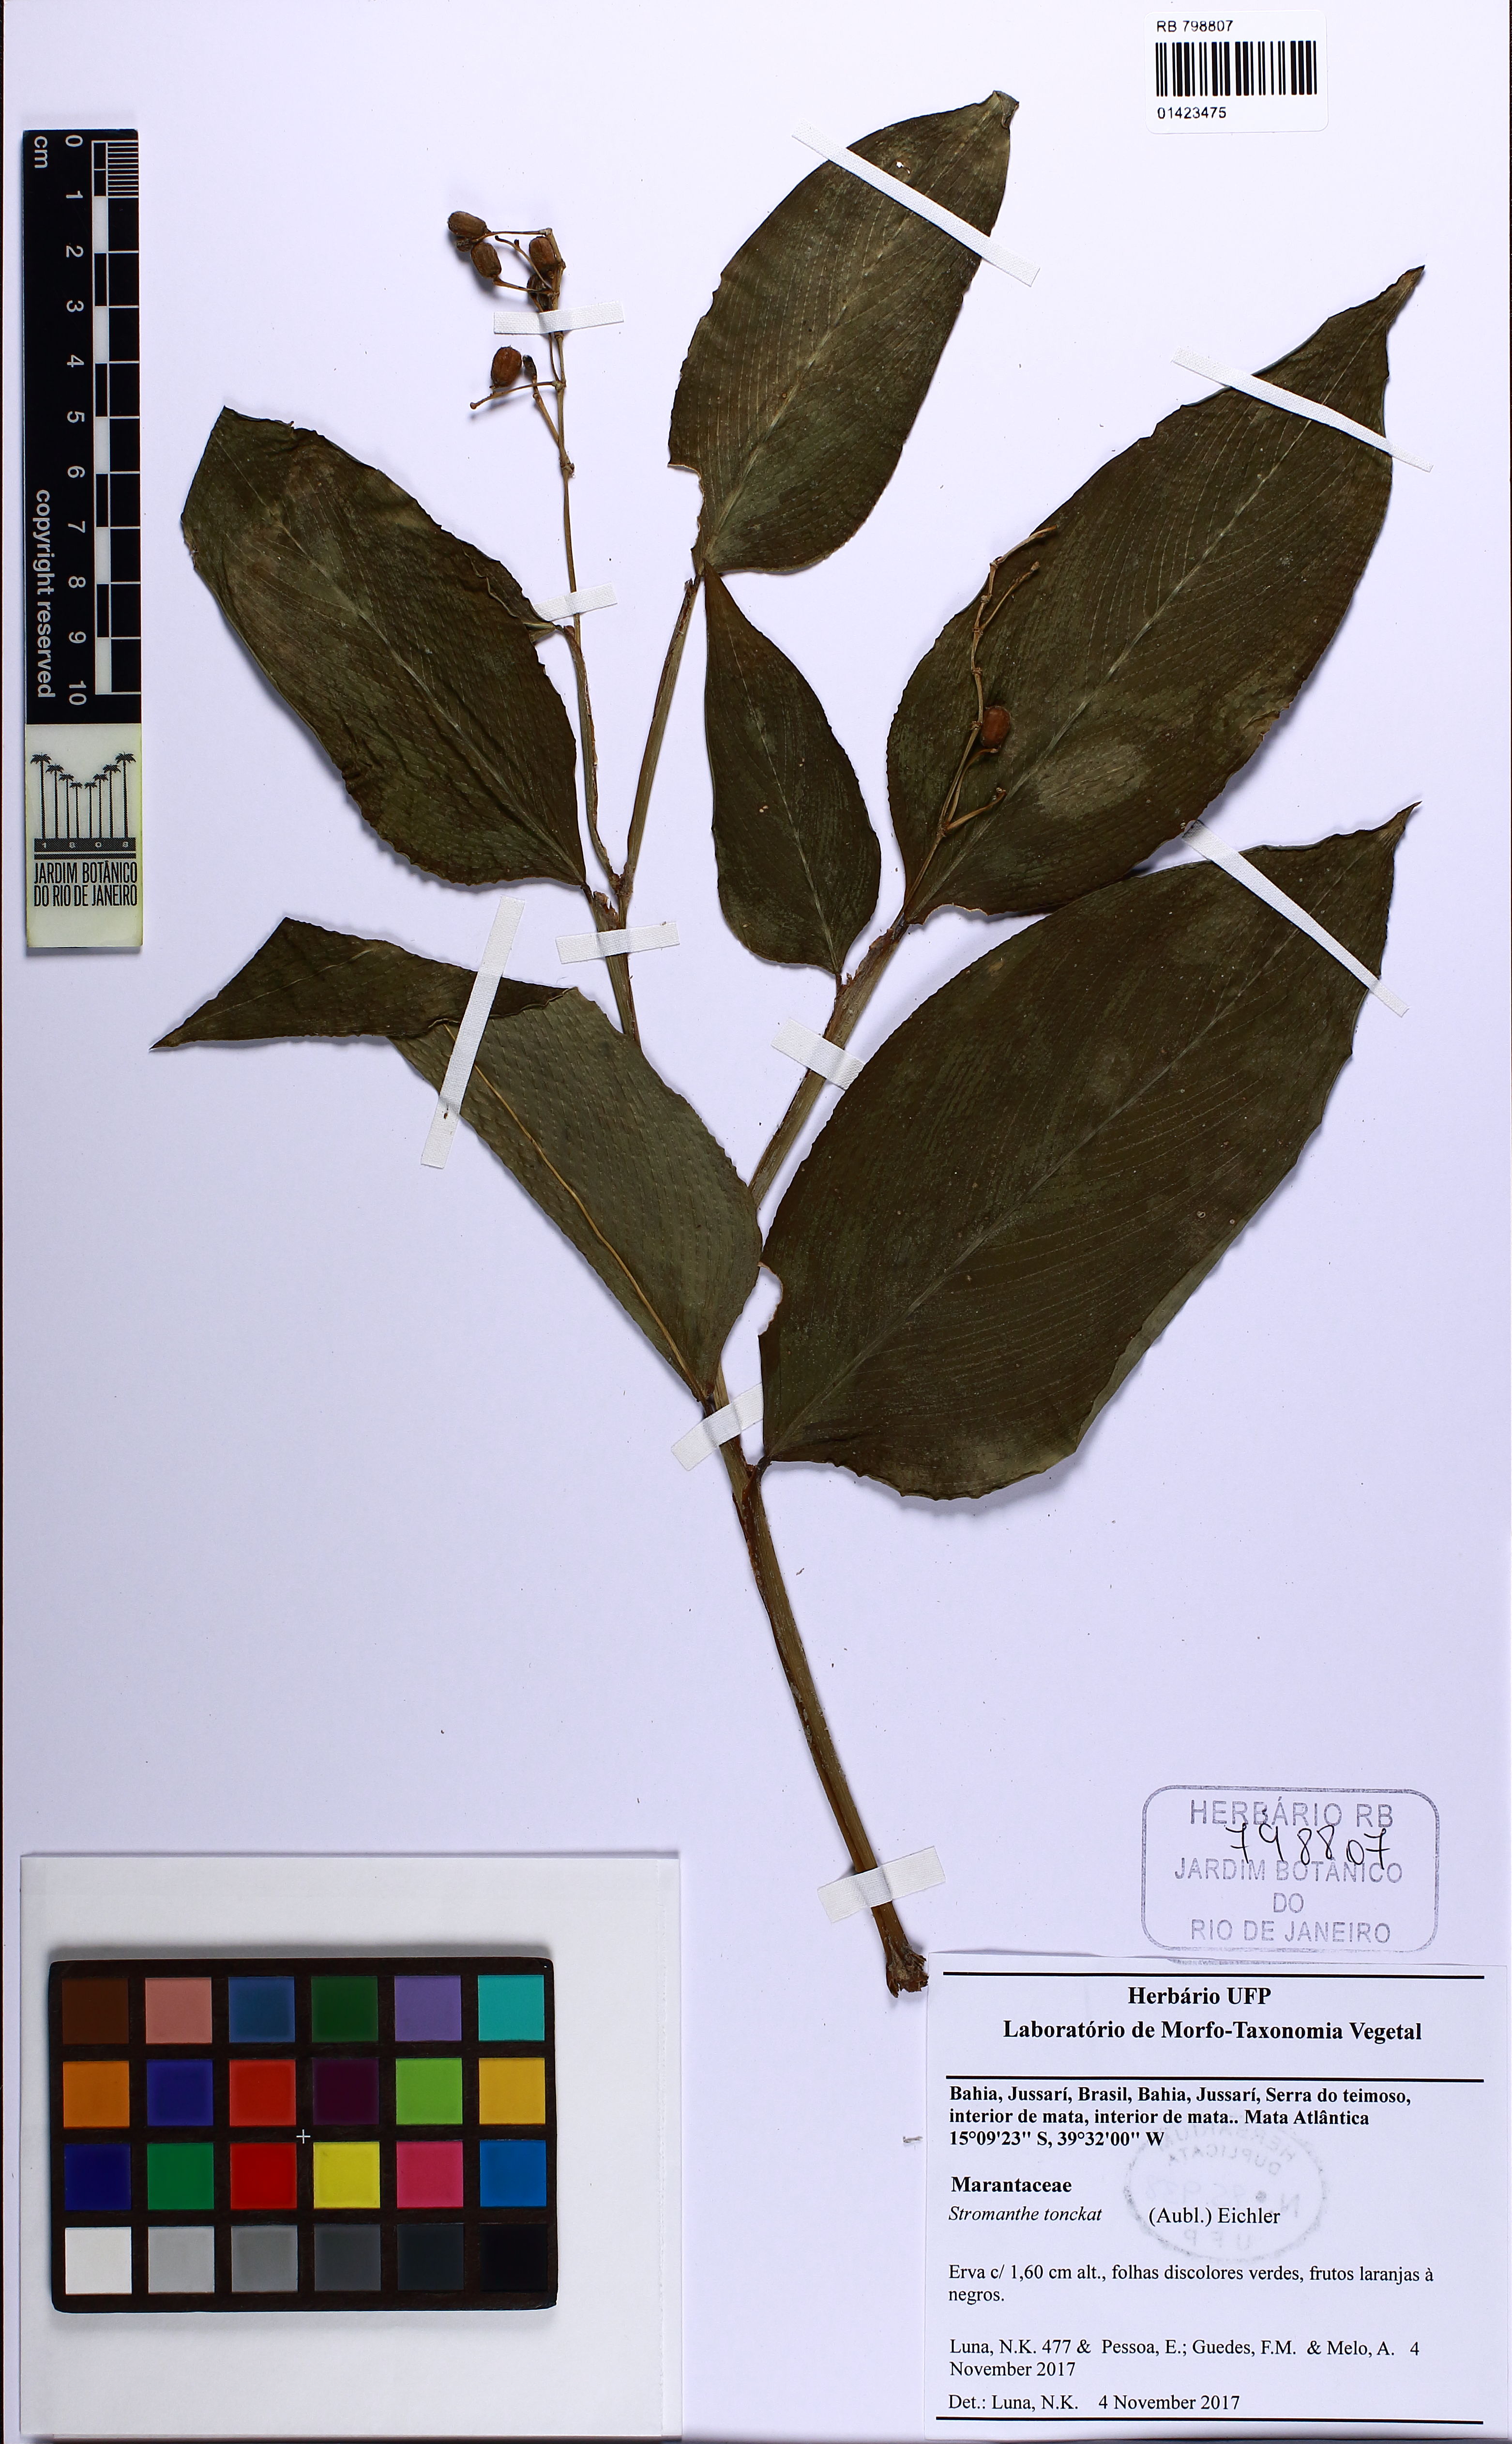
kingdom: Plantae
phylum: Tracheophyta
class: Liliopsida
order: Zingiberales
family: Marantaceae
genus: Stromanthe
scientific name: Stromanthe tonckat
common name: Stromanthe
